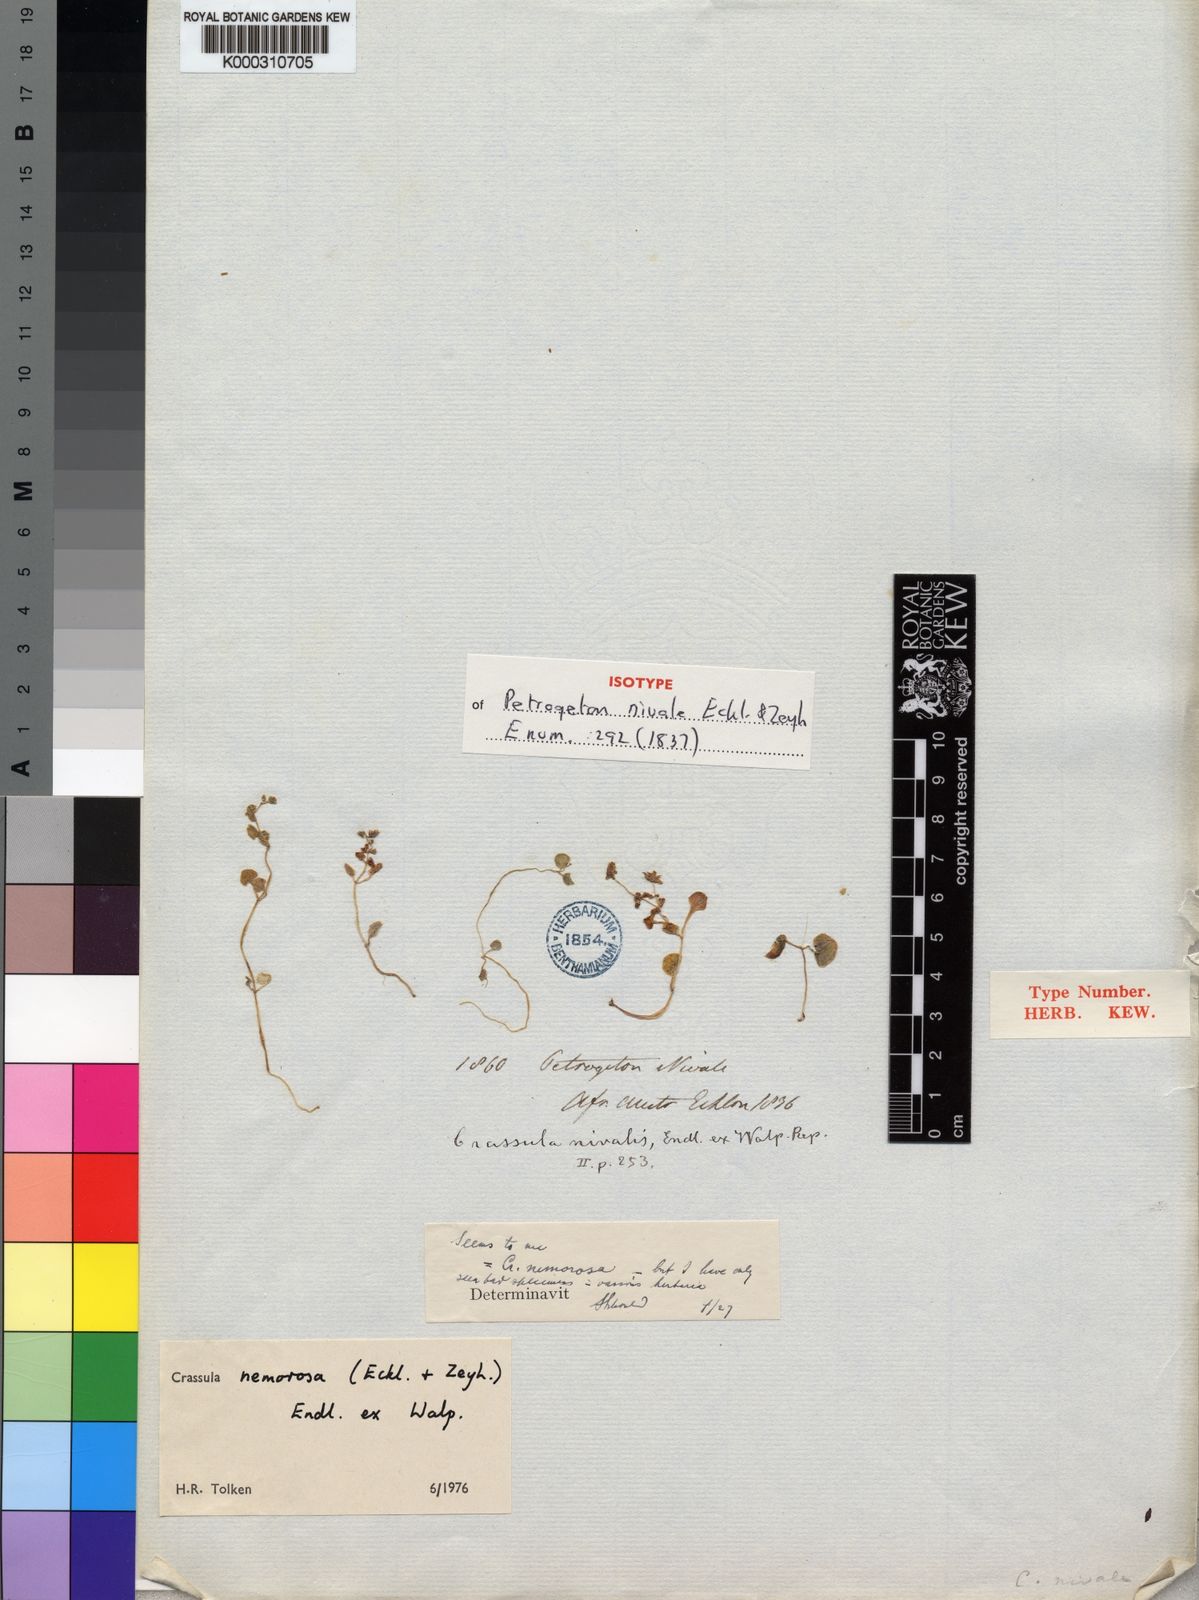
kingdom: Plantae
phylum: Tracheophyta
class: Magnoliopsida
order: Saxifragales
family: Crassulaceae
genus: Crassula
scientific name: Crassula
